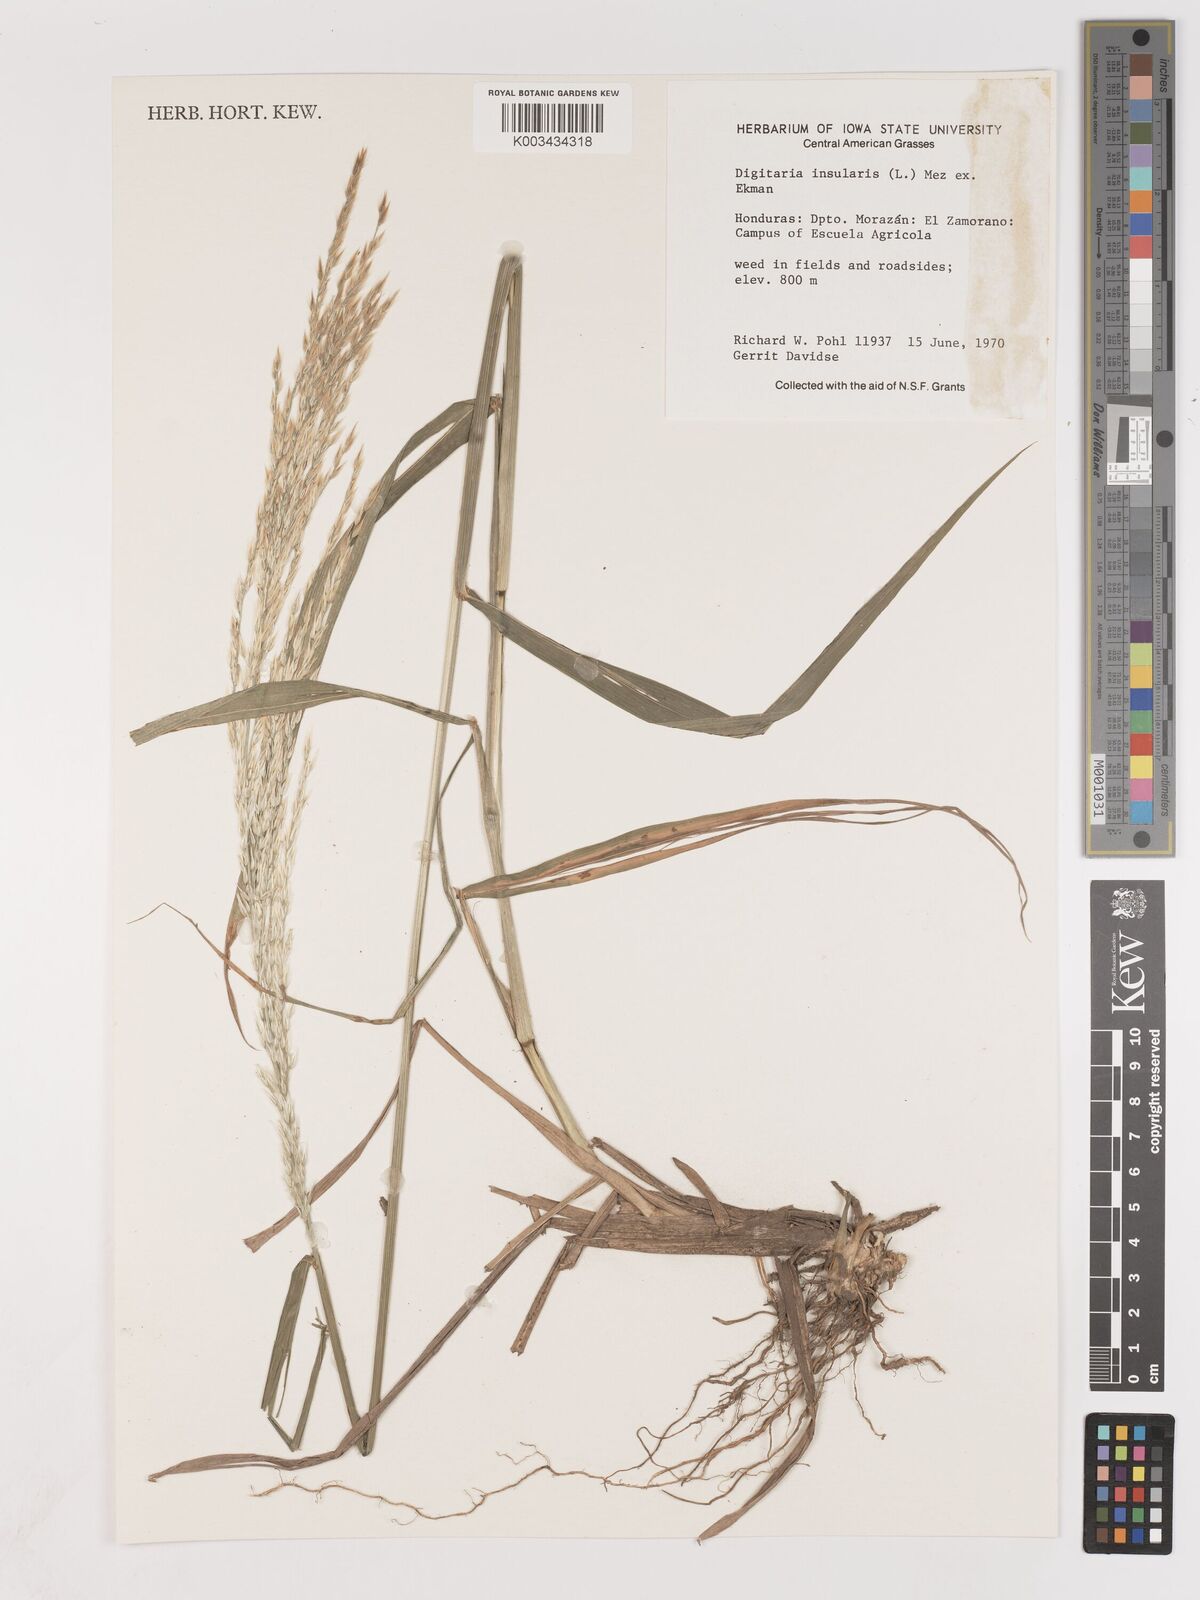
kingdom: Plantae
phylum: Tracheophyta
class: Liliopsida
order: Poales
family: Poaceae
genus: Digitaria
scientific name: Digitaria insularis
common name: Sourgrass
